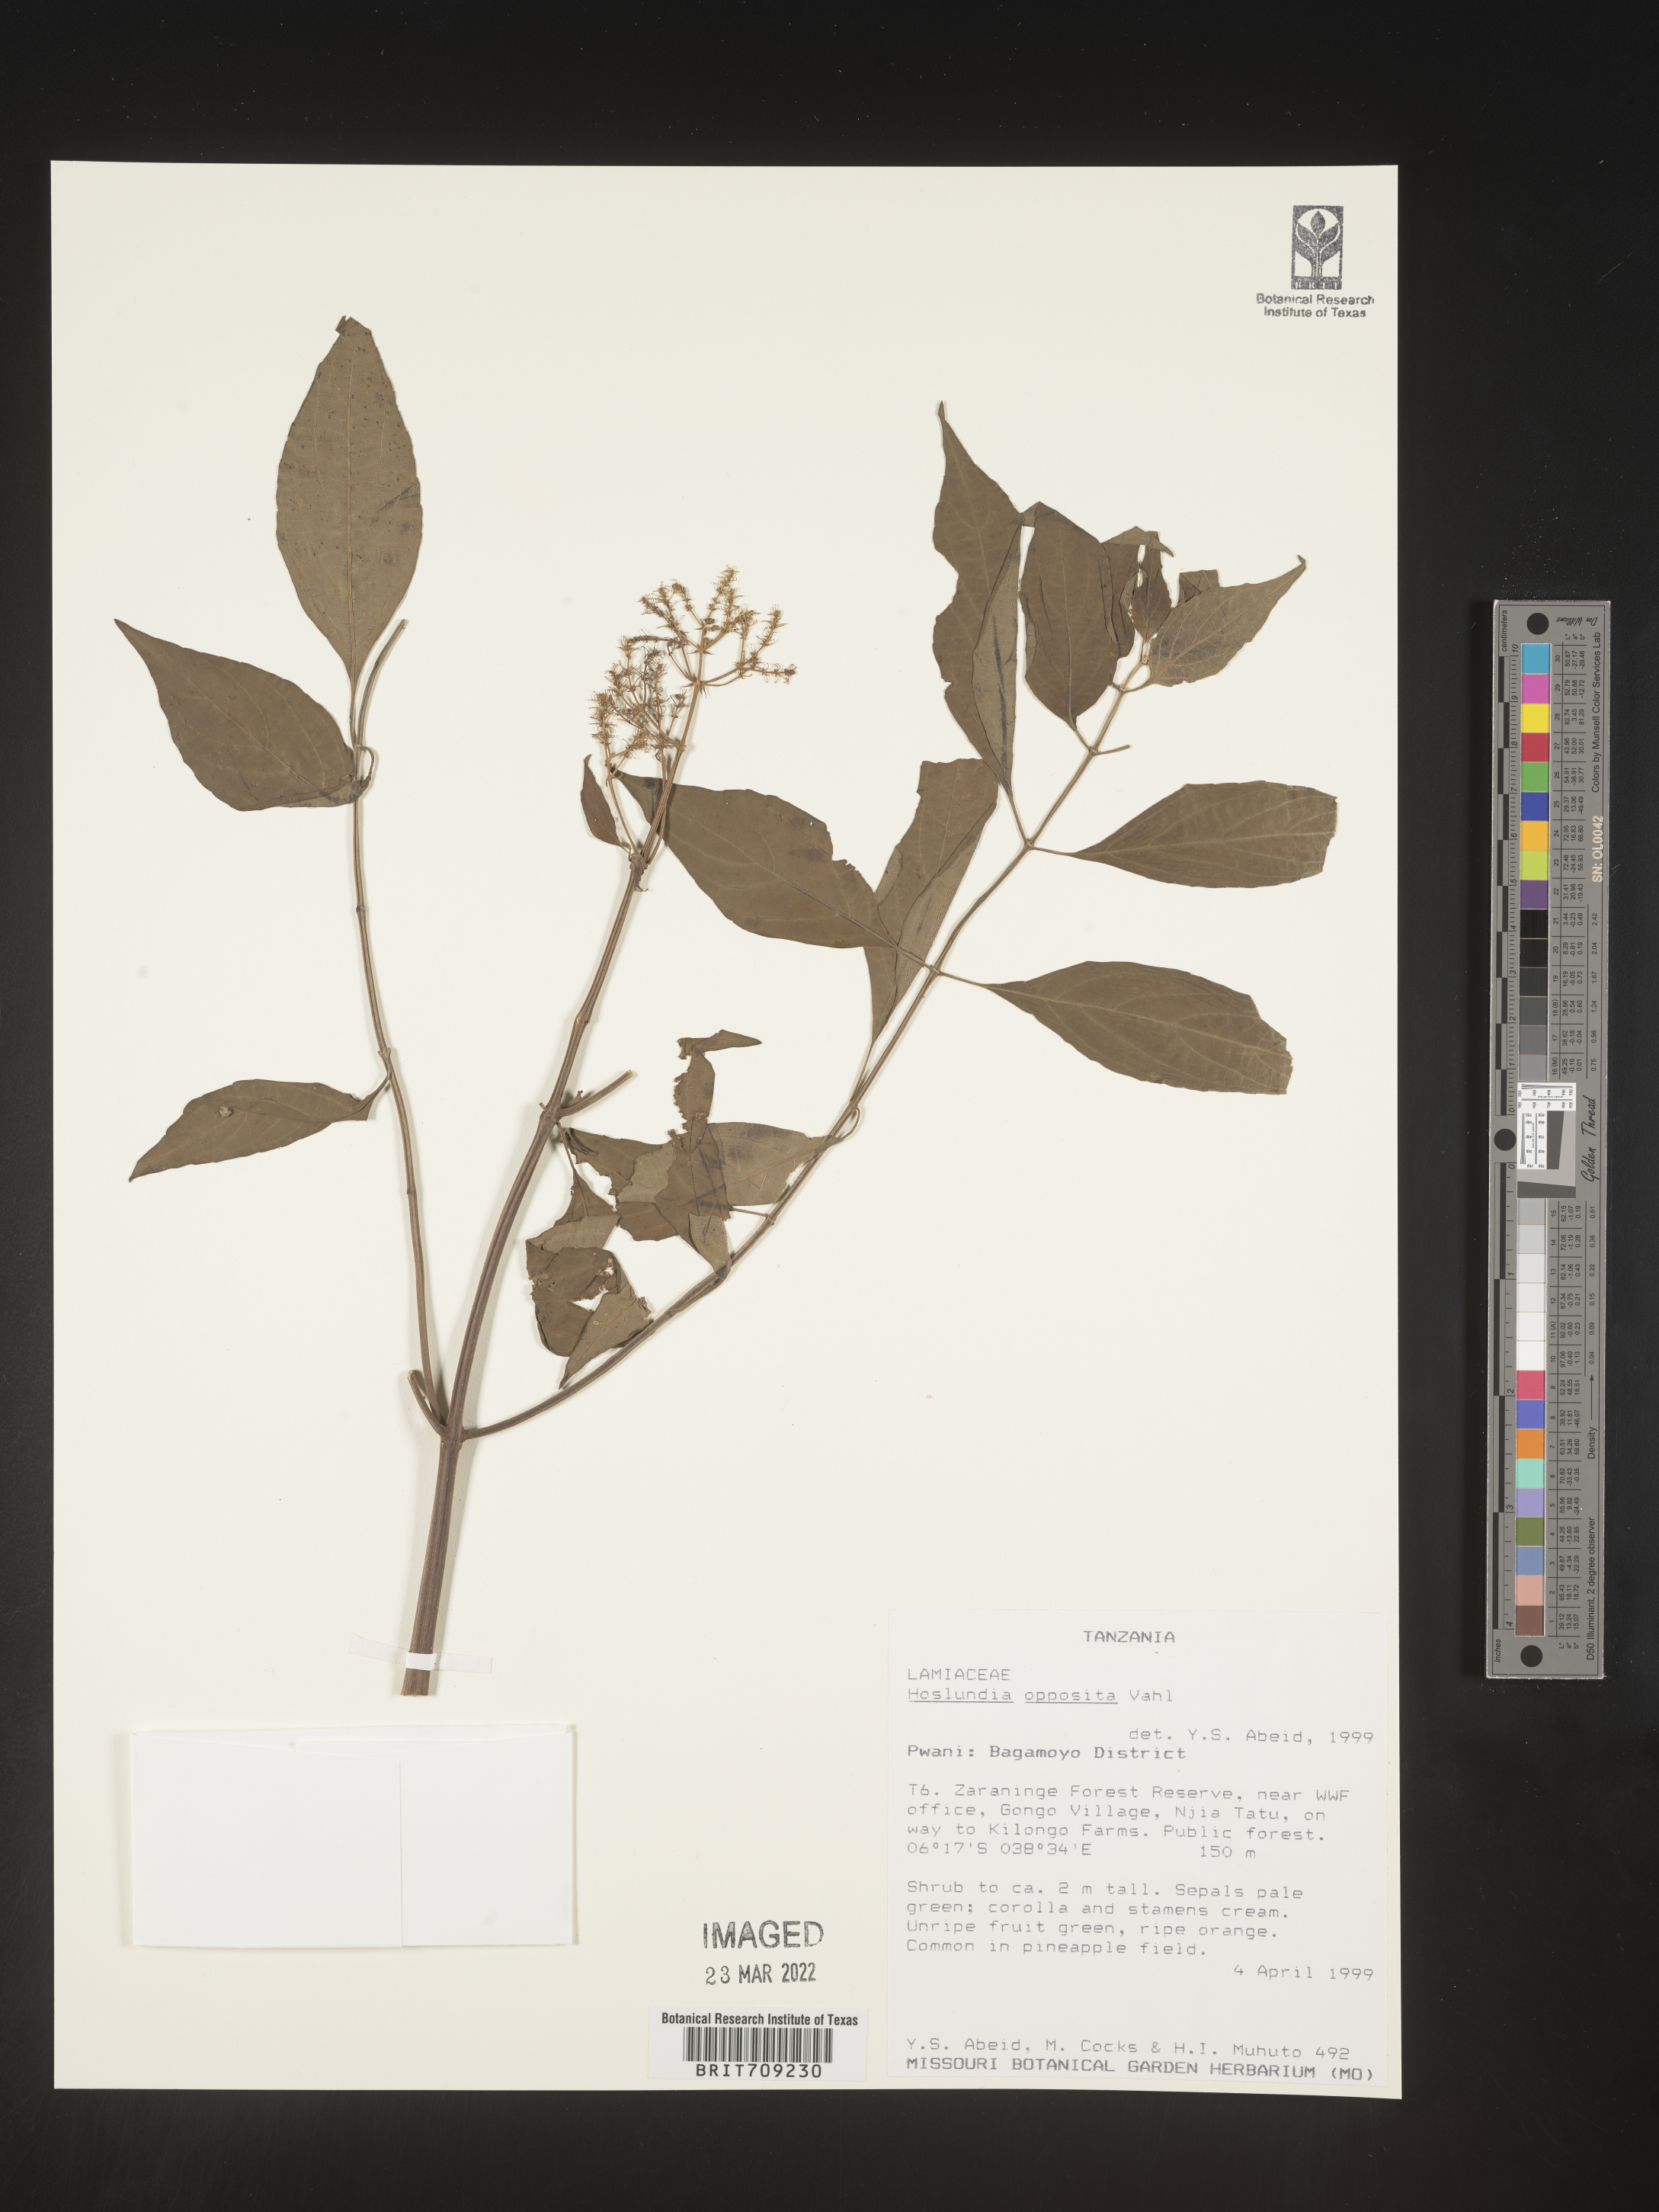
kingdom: Plantae
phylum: Tracheophyta
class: Magnoliopsida
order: Lamiales
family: Lamiaceae
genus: Hoslundia
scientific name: Hoslundia opposita
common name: Kamyuye
